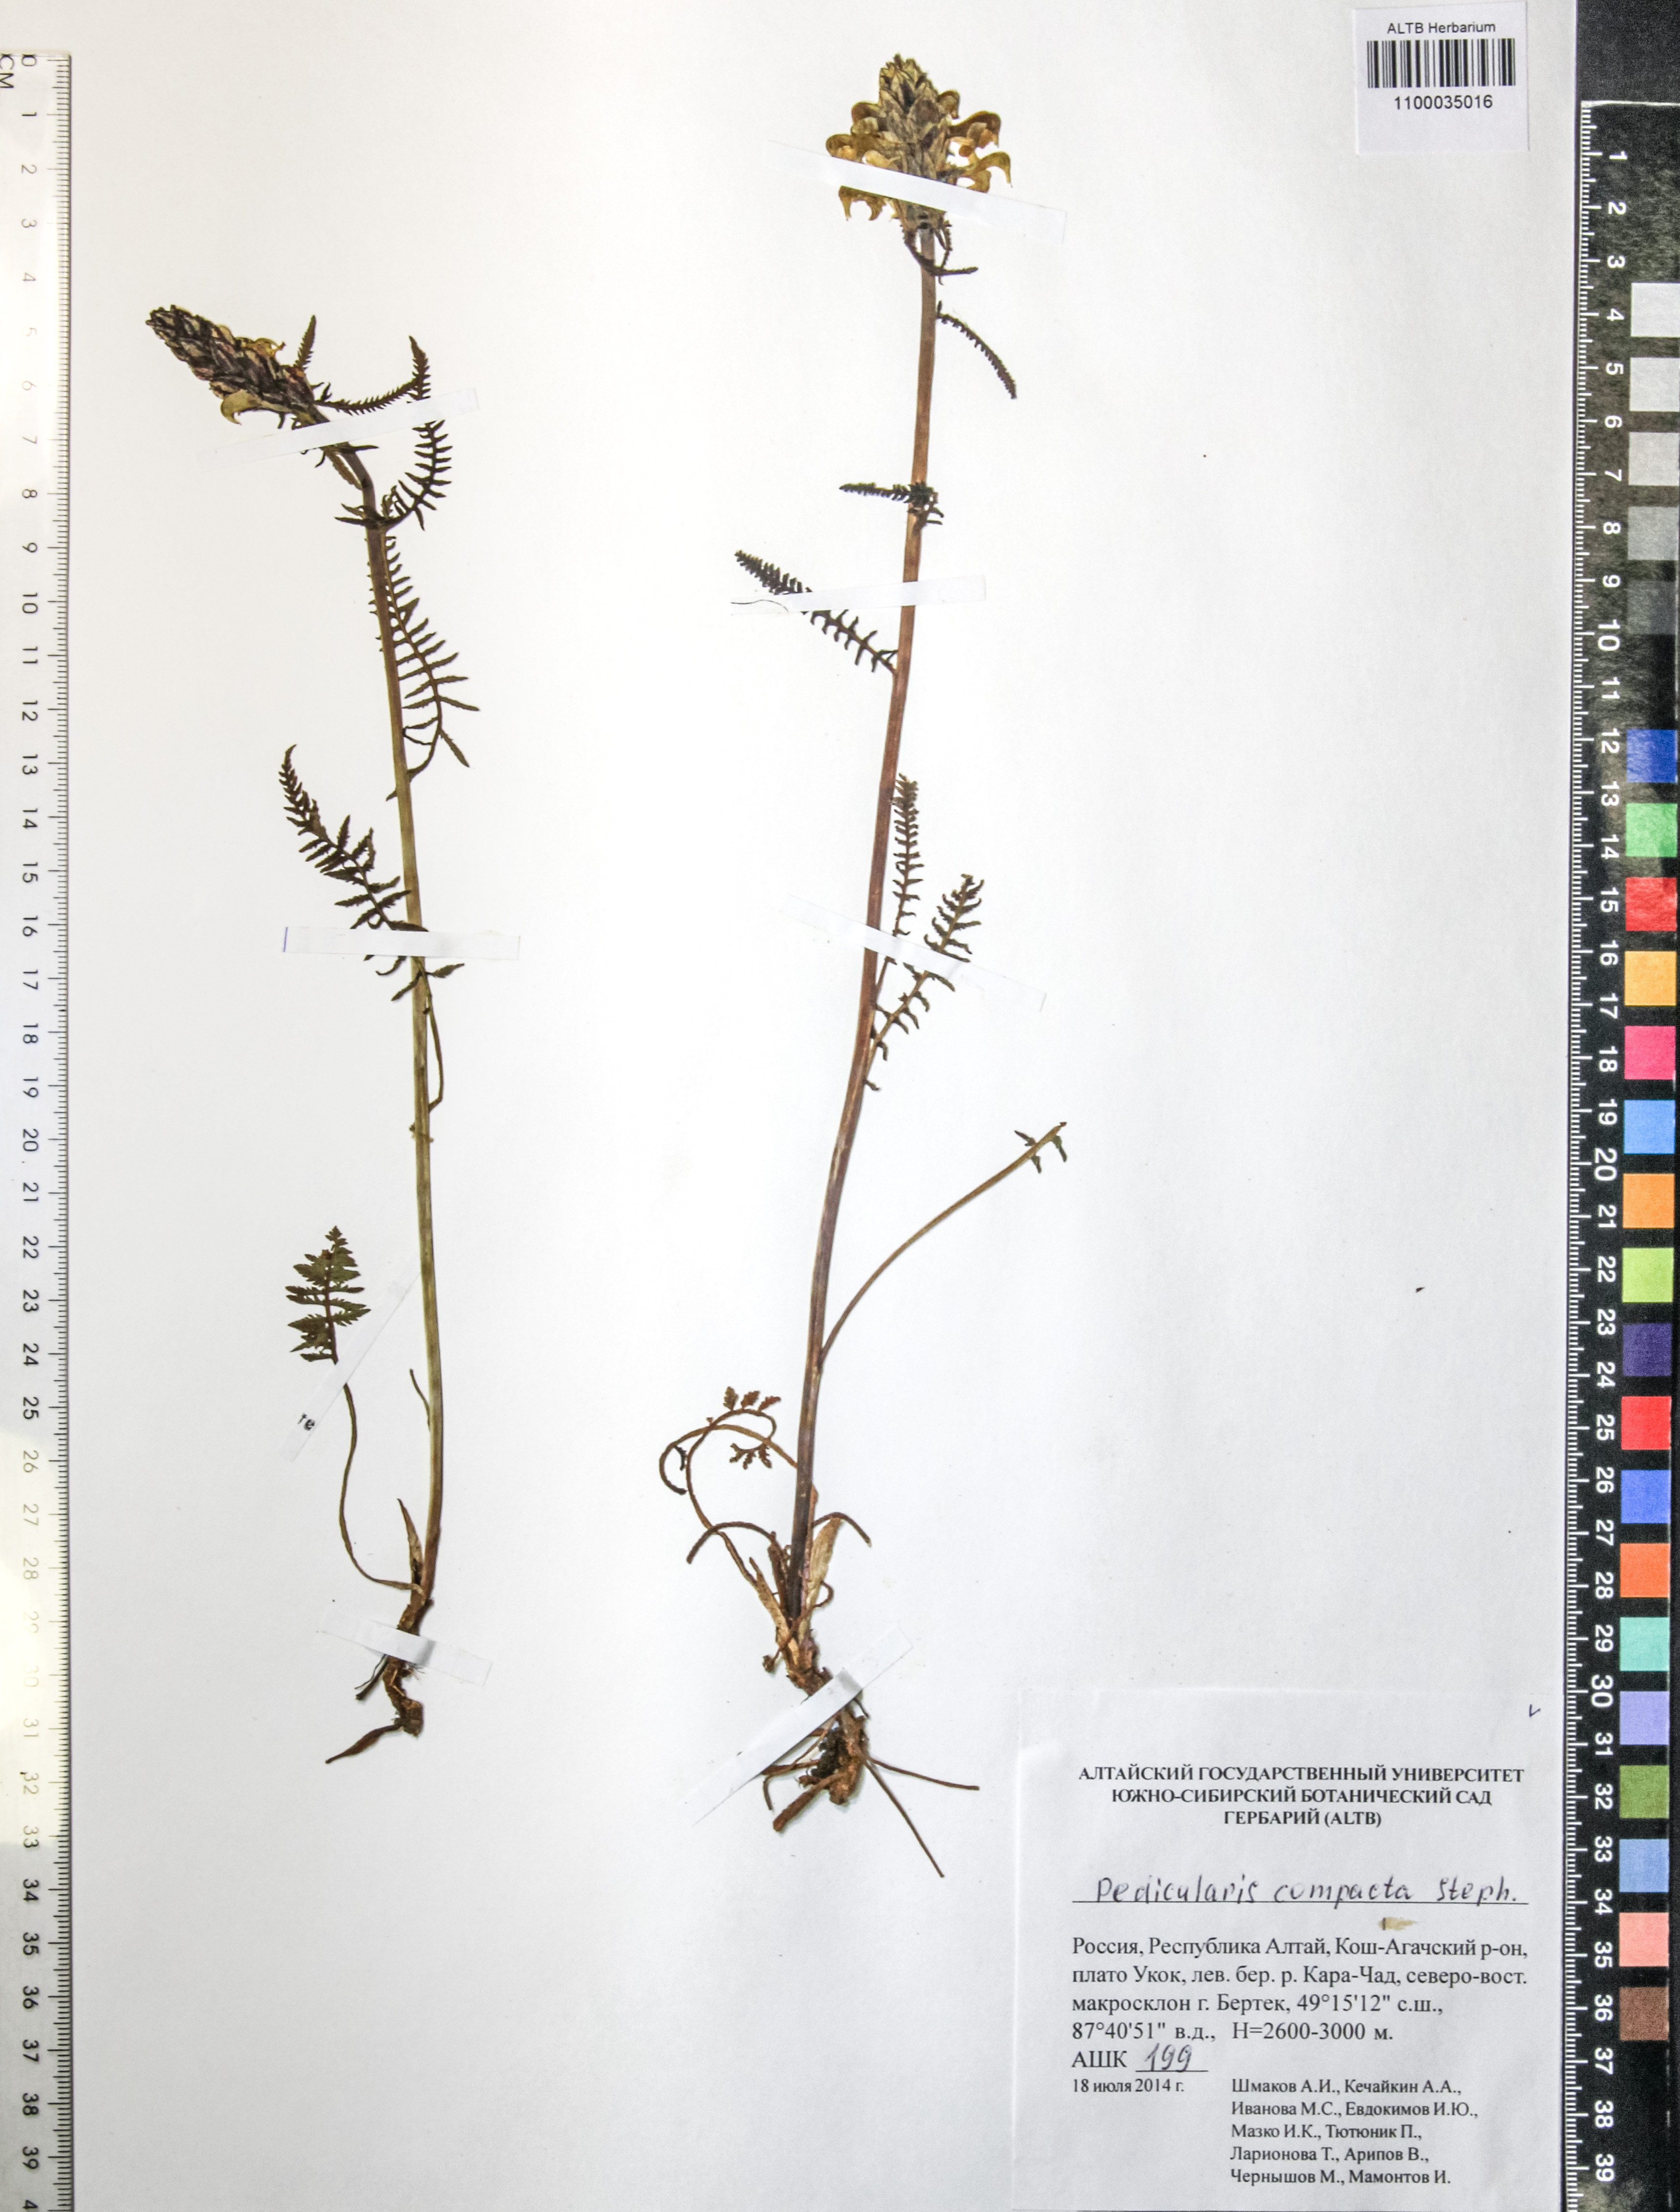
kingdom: Plantae
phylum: Tracheophyta
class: Magnoliopsida
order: Lamiales
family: Orobanchaceae
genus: Pedicularis
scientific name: Pedicularis compacta
